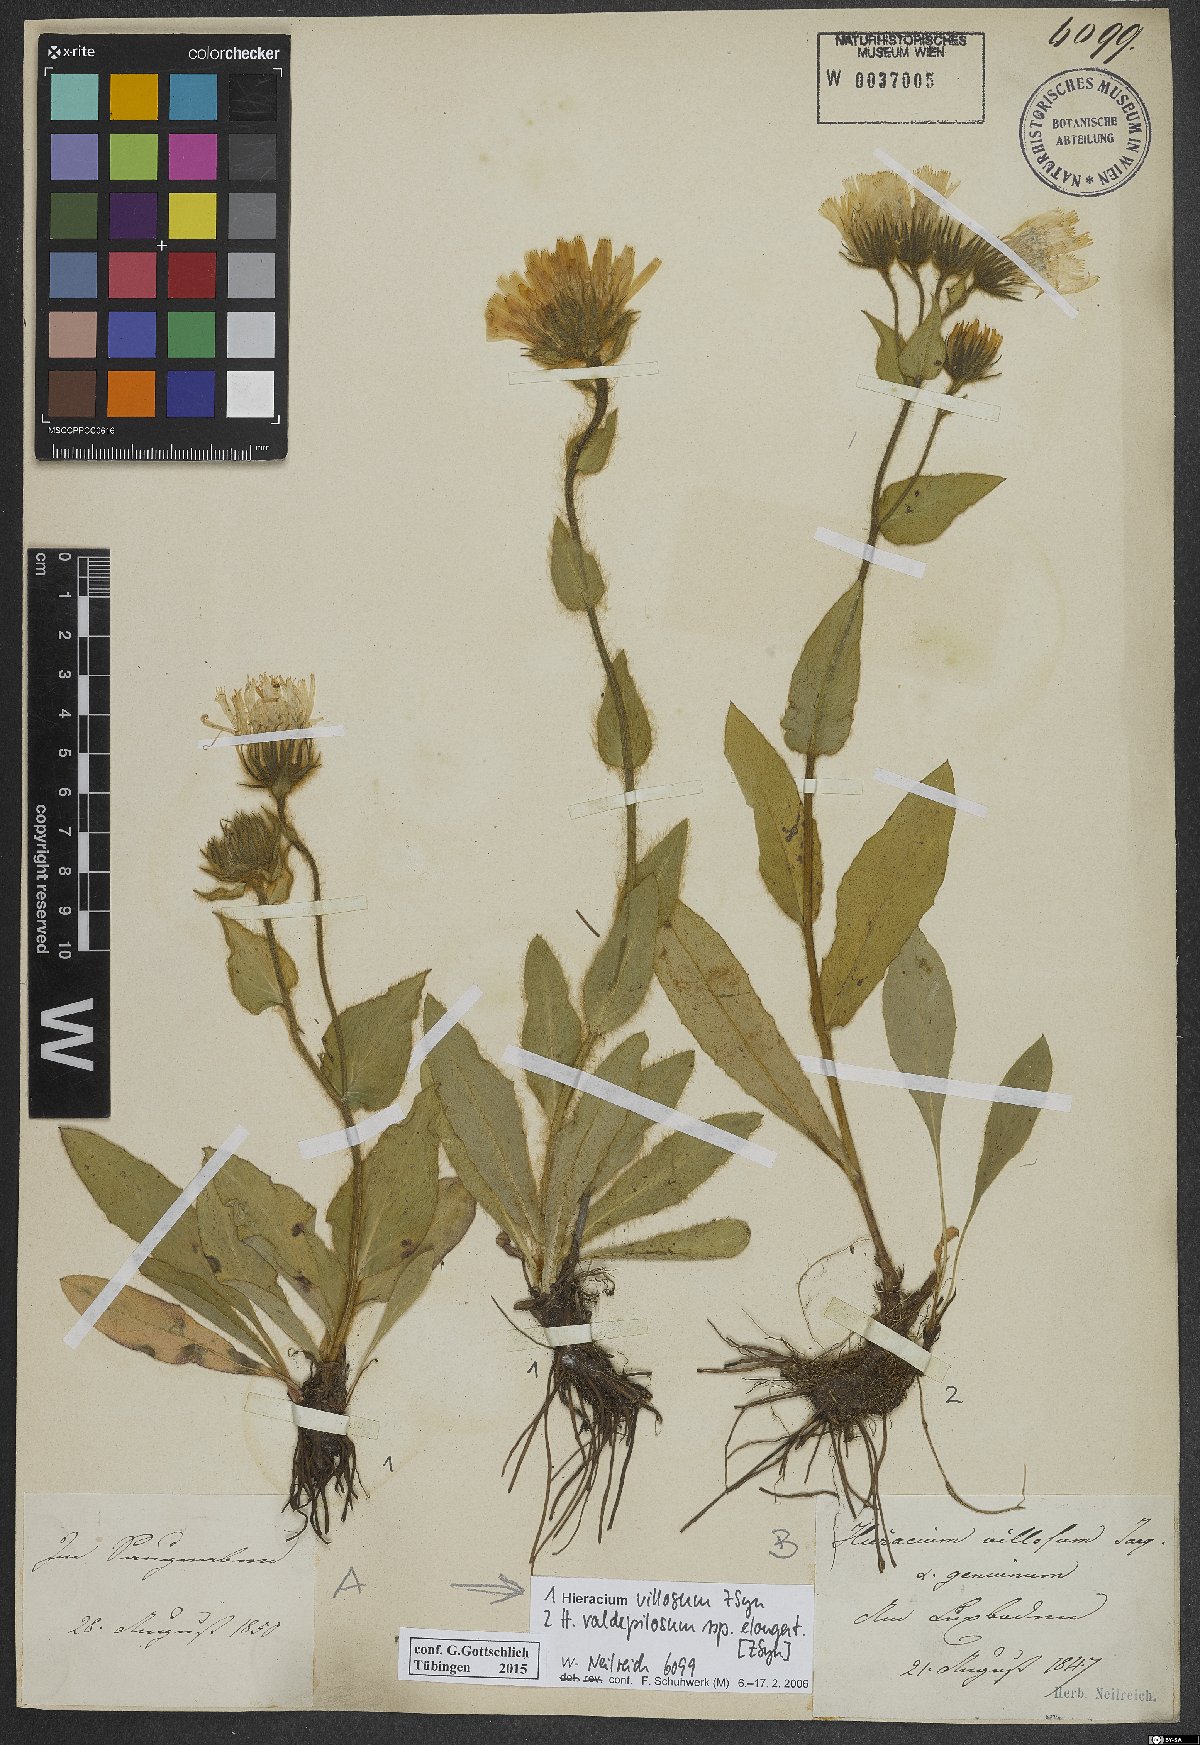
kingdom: Plantae
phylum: Tracheophyta
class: Magnoliopsida
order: Asterales
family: Asteraceae
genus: Hieracium
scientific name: Hieracium valdepilosum
